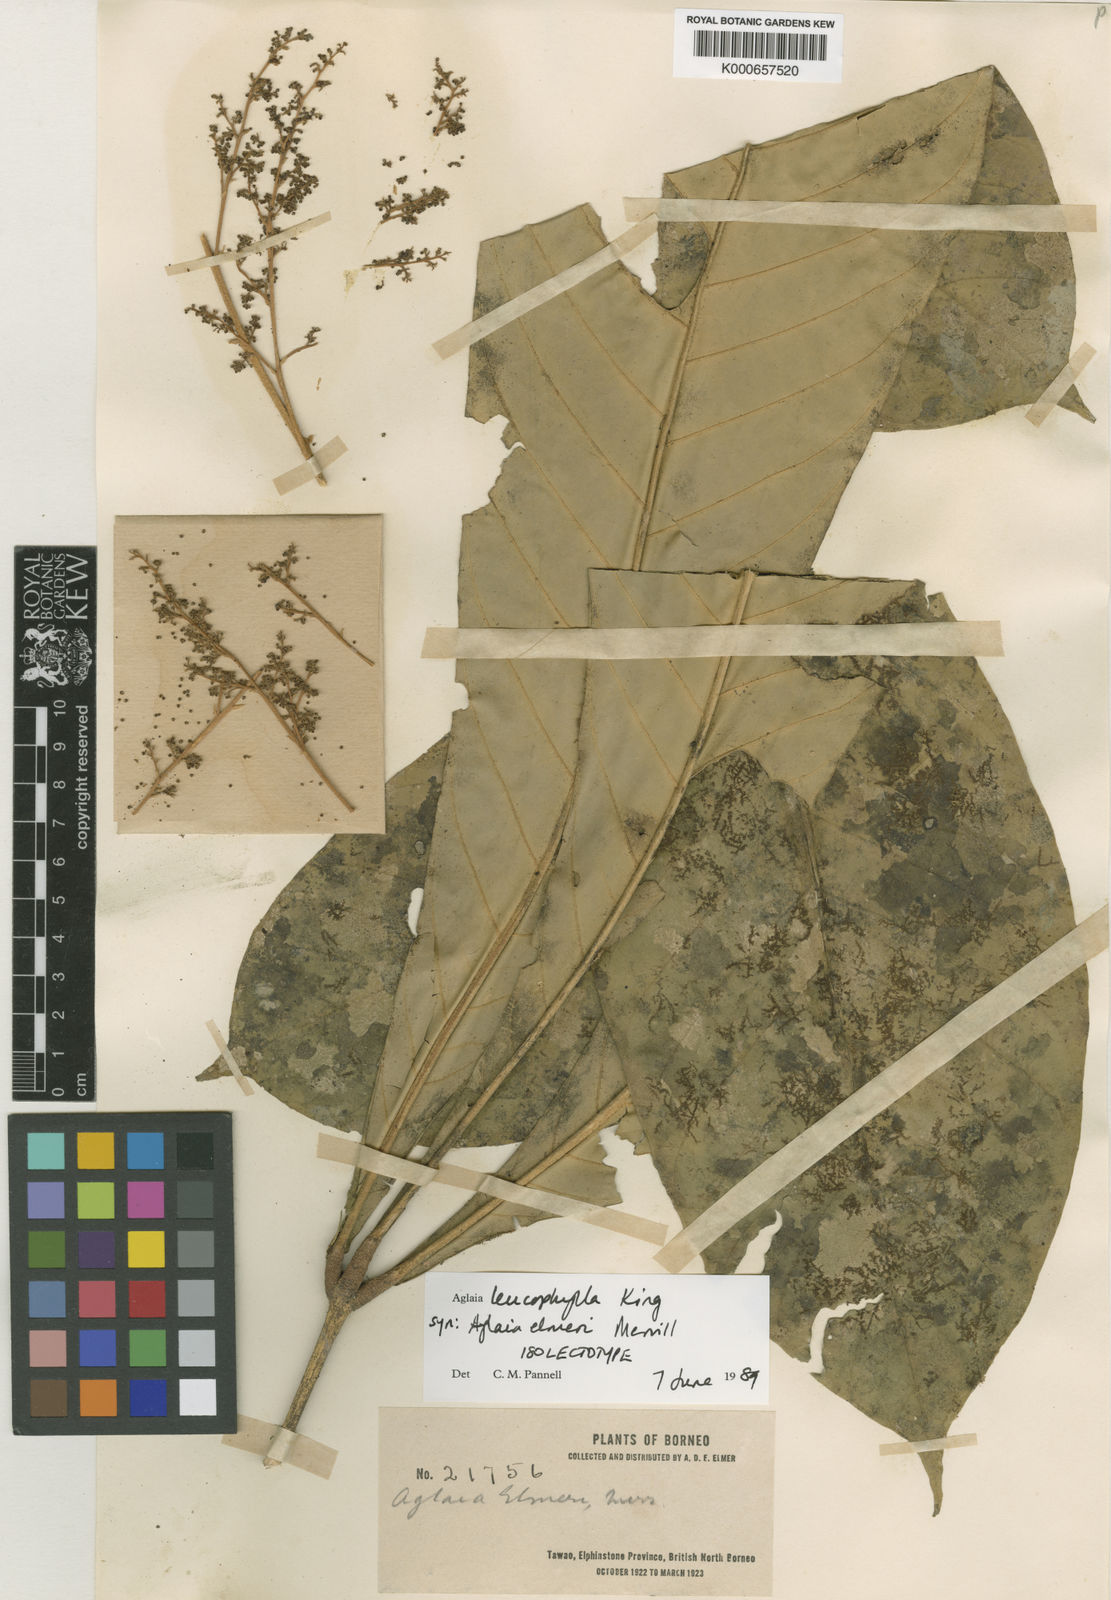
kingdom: Plantae
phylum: Tracheophyta
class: Magnoliopsida
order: Sapindales
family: Meliaceae
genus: Aglaia
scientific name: Aglaia leucophylla
